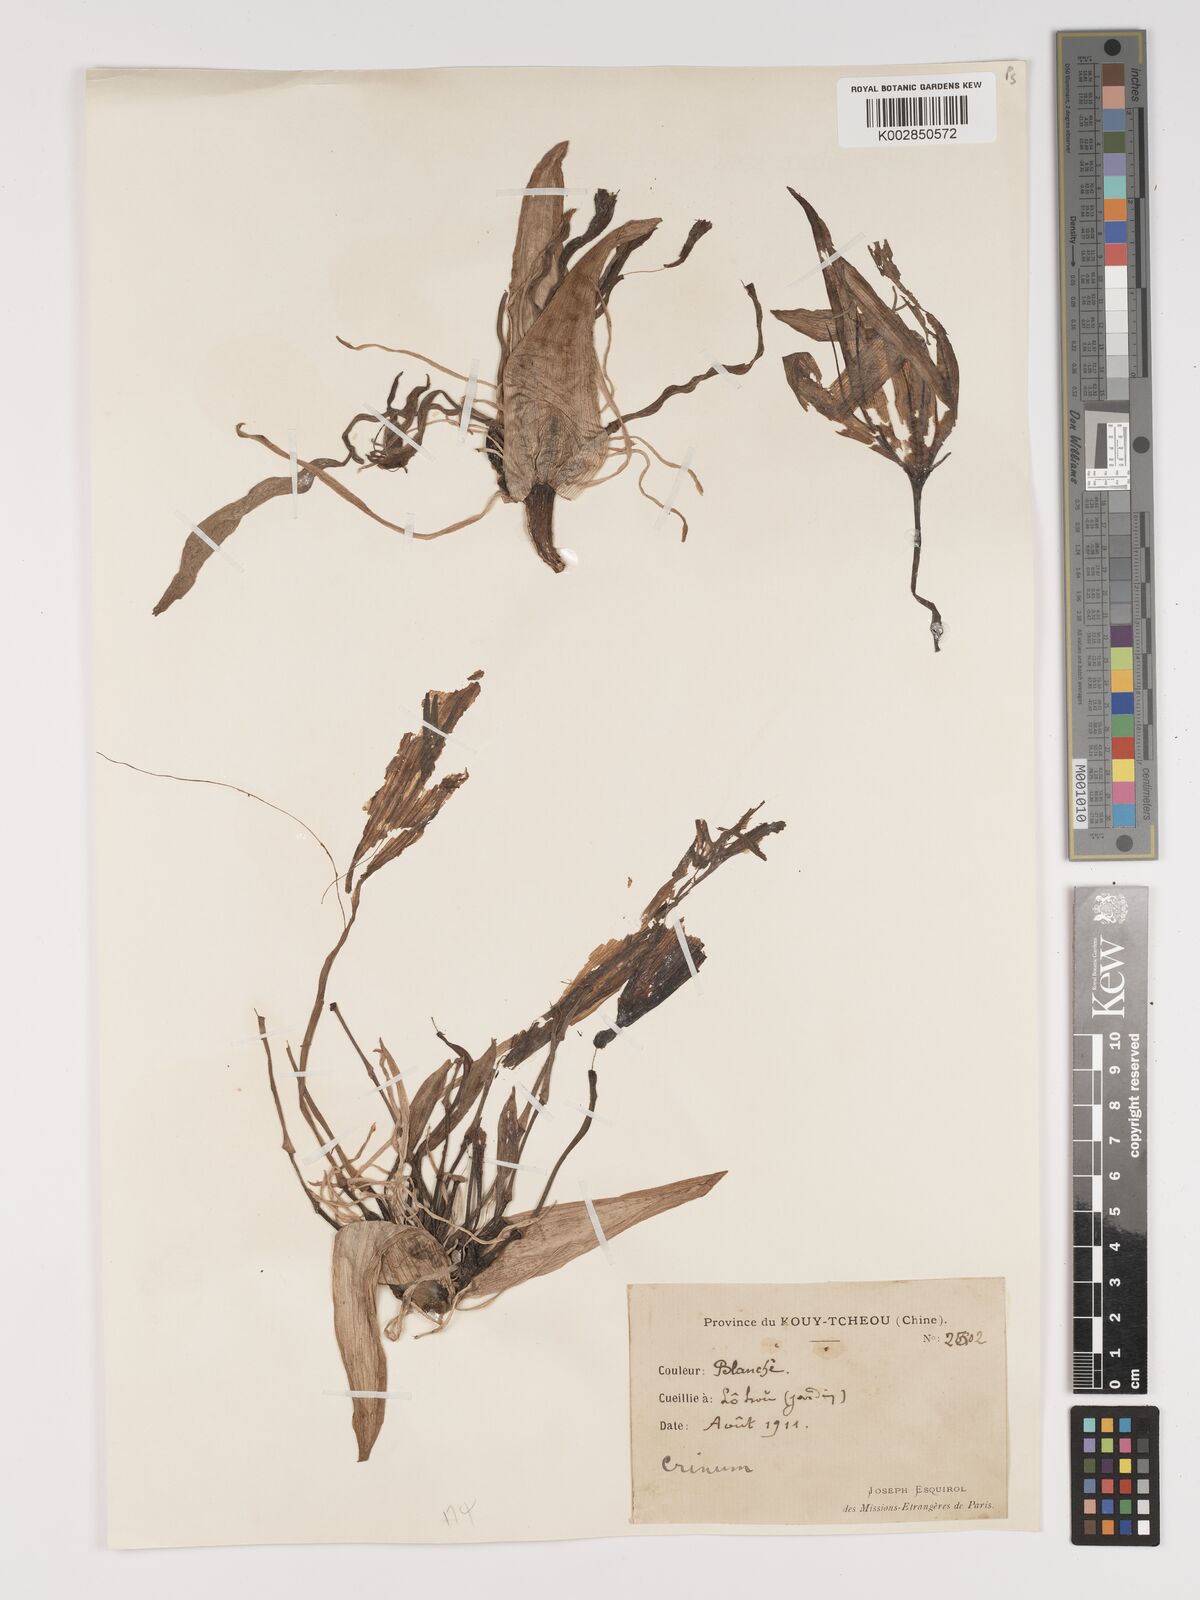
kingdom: Plantae
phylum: Tracheophyta
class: Liliopsida
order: Asparagales
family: Amaryllidaceae
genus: Crinum
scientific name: Crinum latifolium
